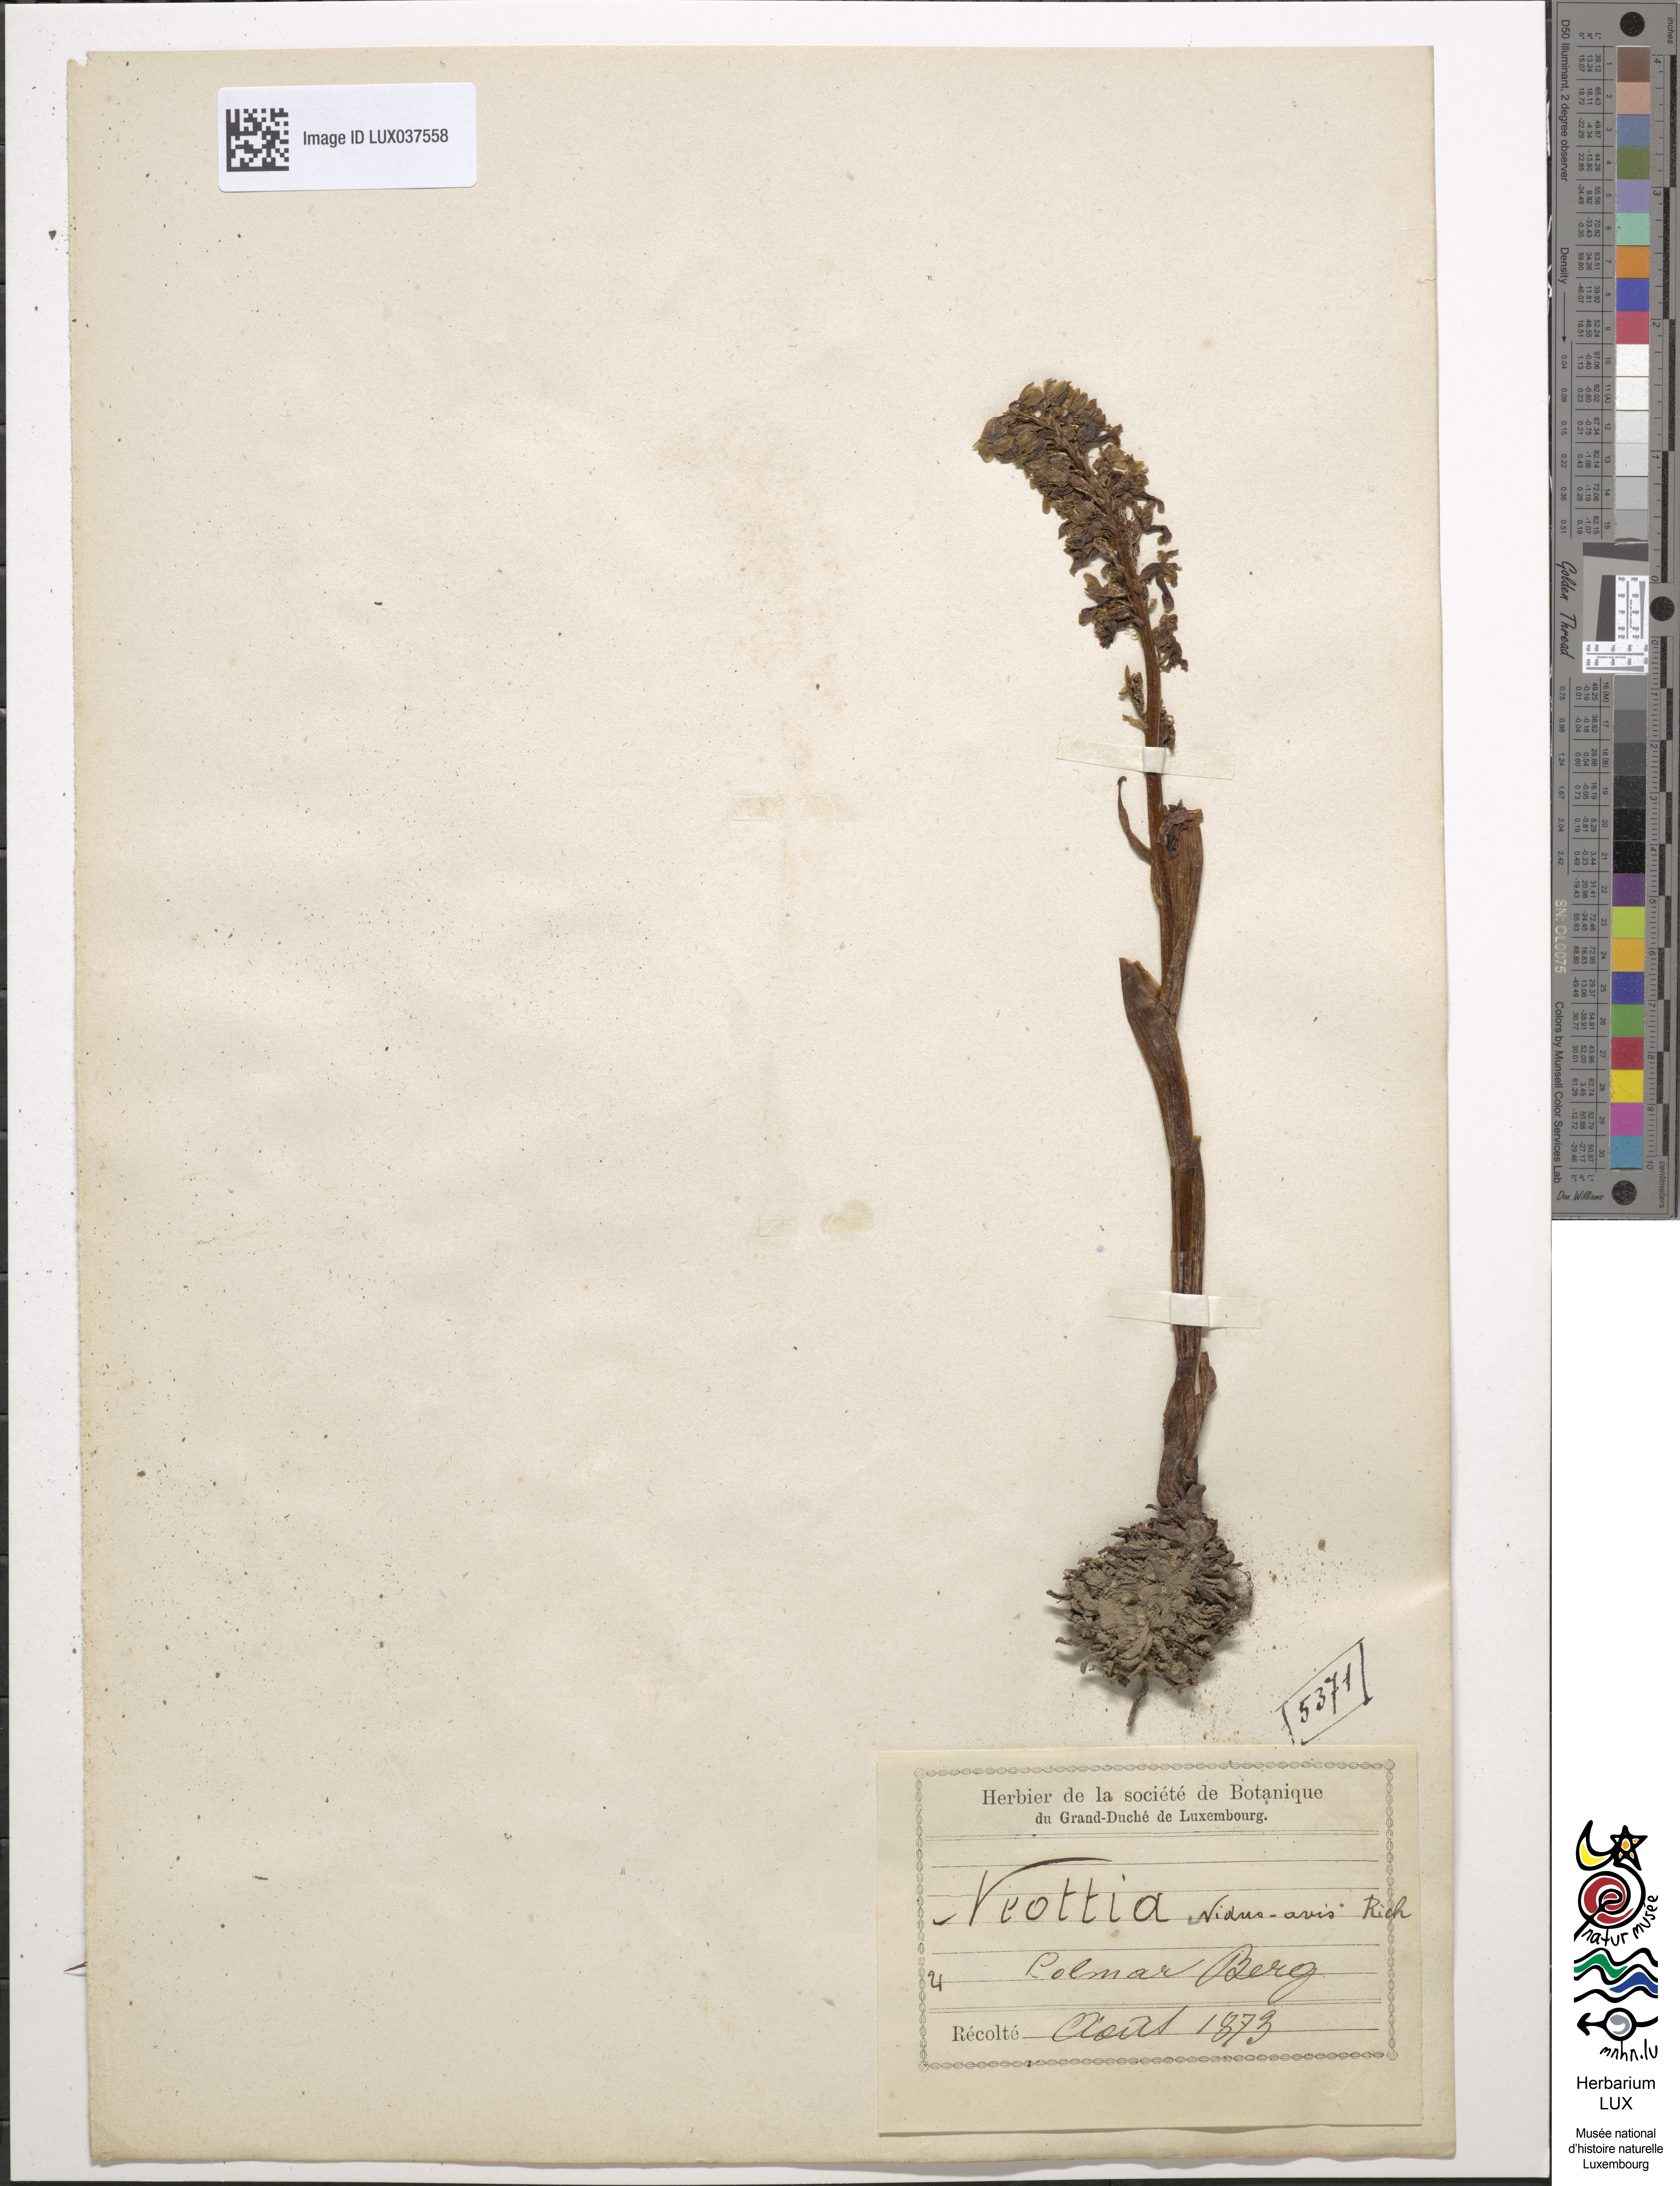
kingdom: Plantae
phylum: Tracheophyta
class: Liliopsida
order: Asparagales
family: Orchidaceae
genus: Neottia
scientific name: Neottia nidus-avis
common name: Bird's-nest orchid
